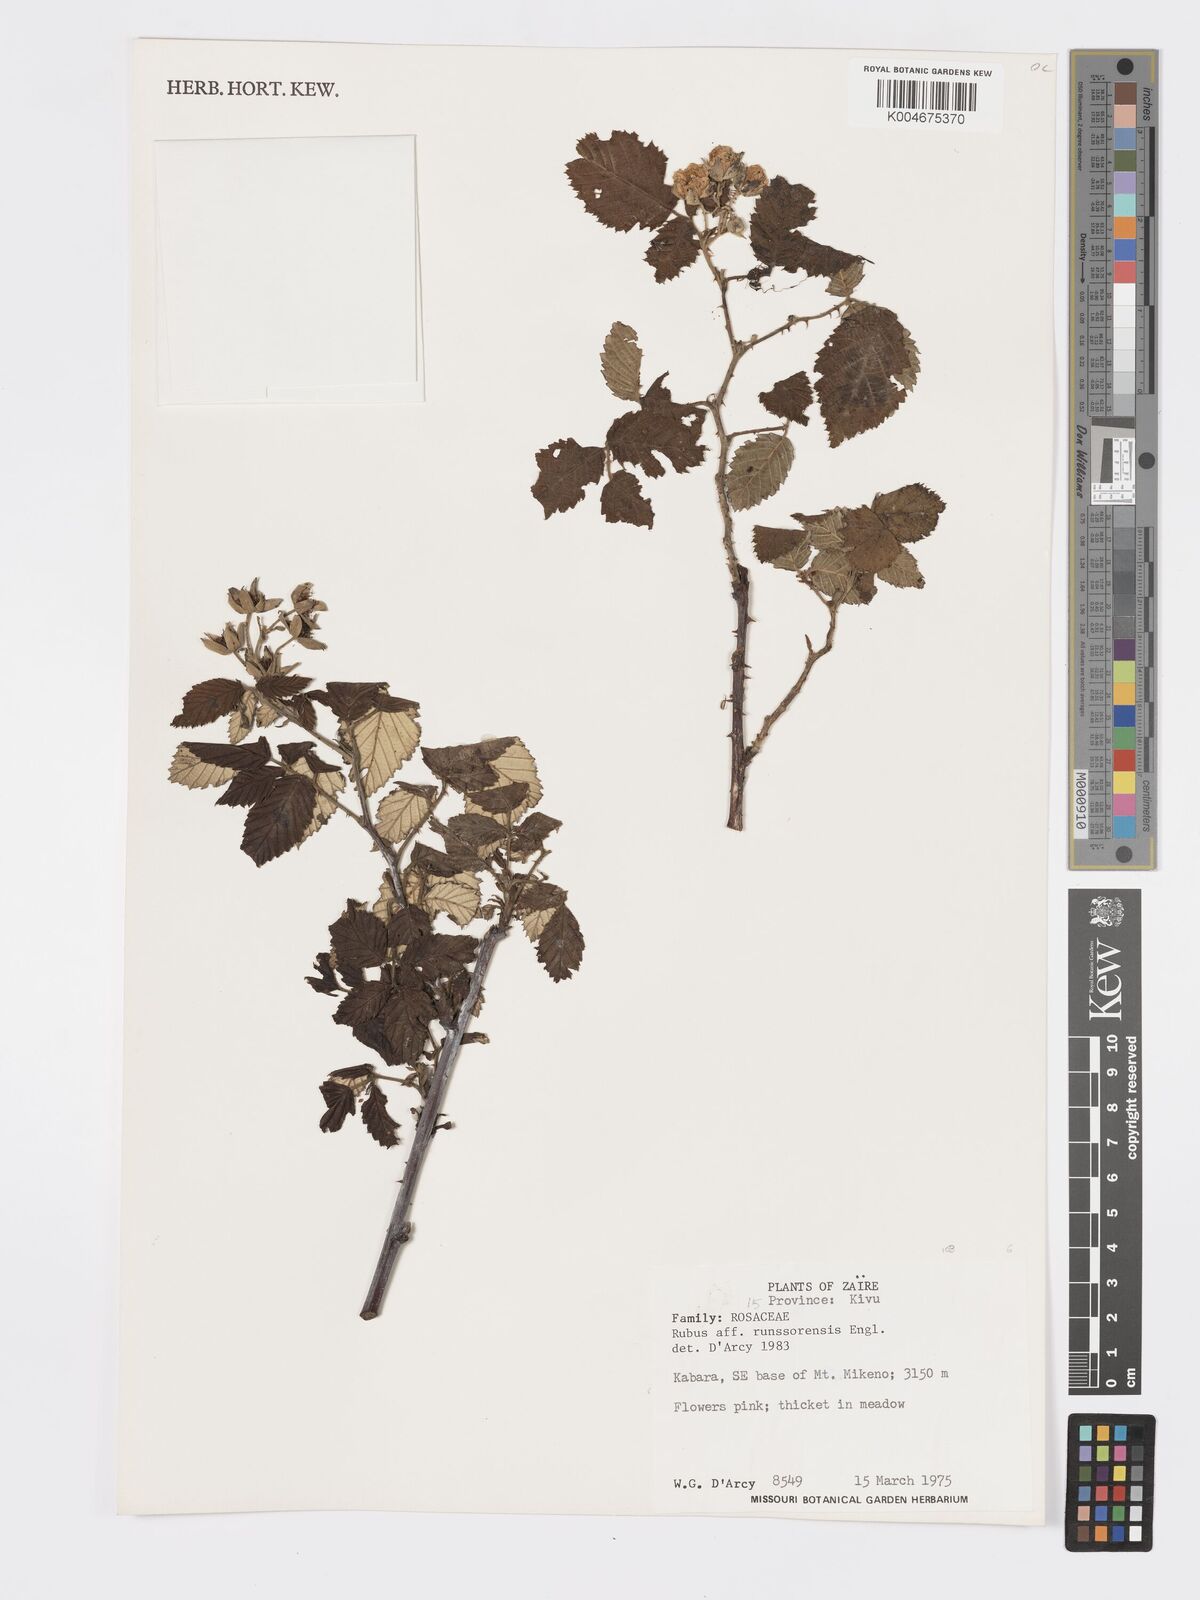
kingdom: Plantae
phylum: Tracheophyta
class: Magnoliopsida
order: Rosales
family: Rosaceae
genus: Rubus
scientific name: Rubus runssorensis
